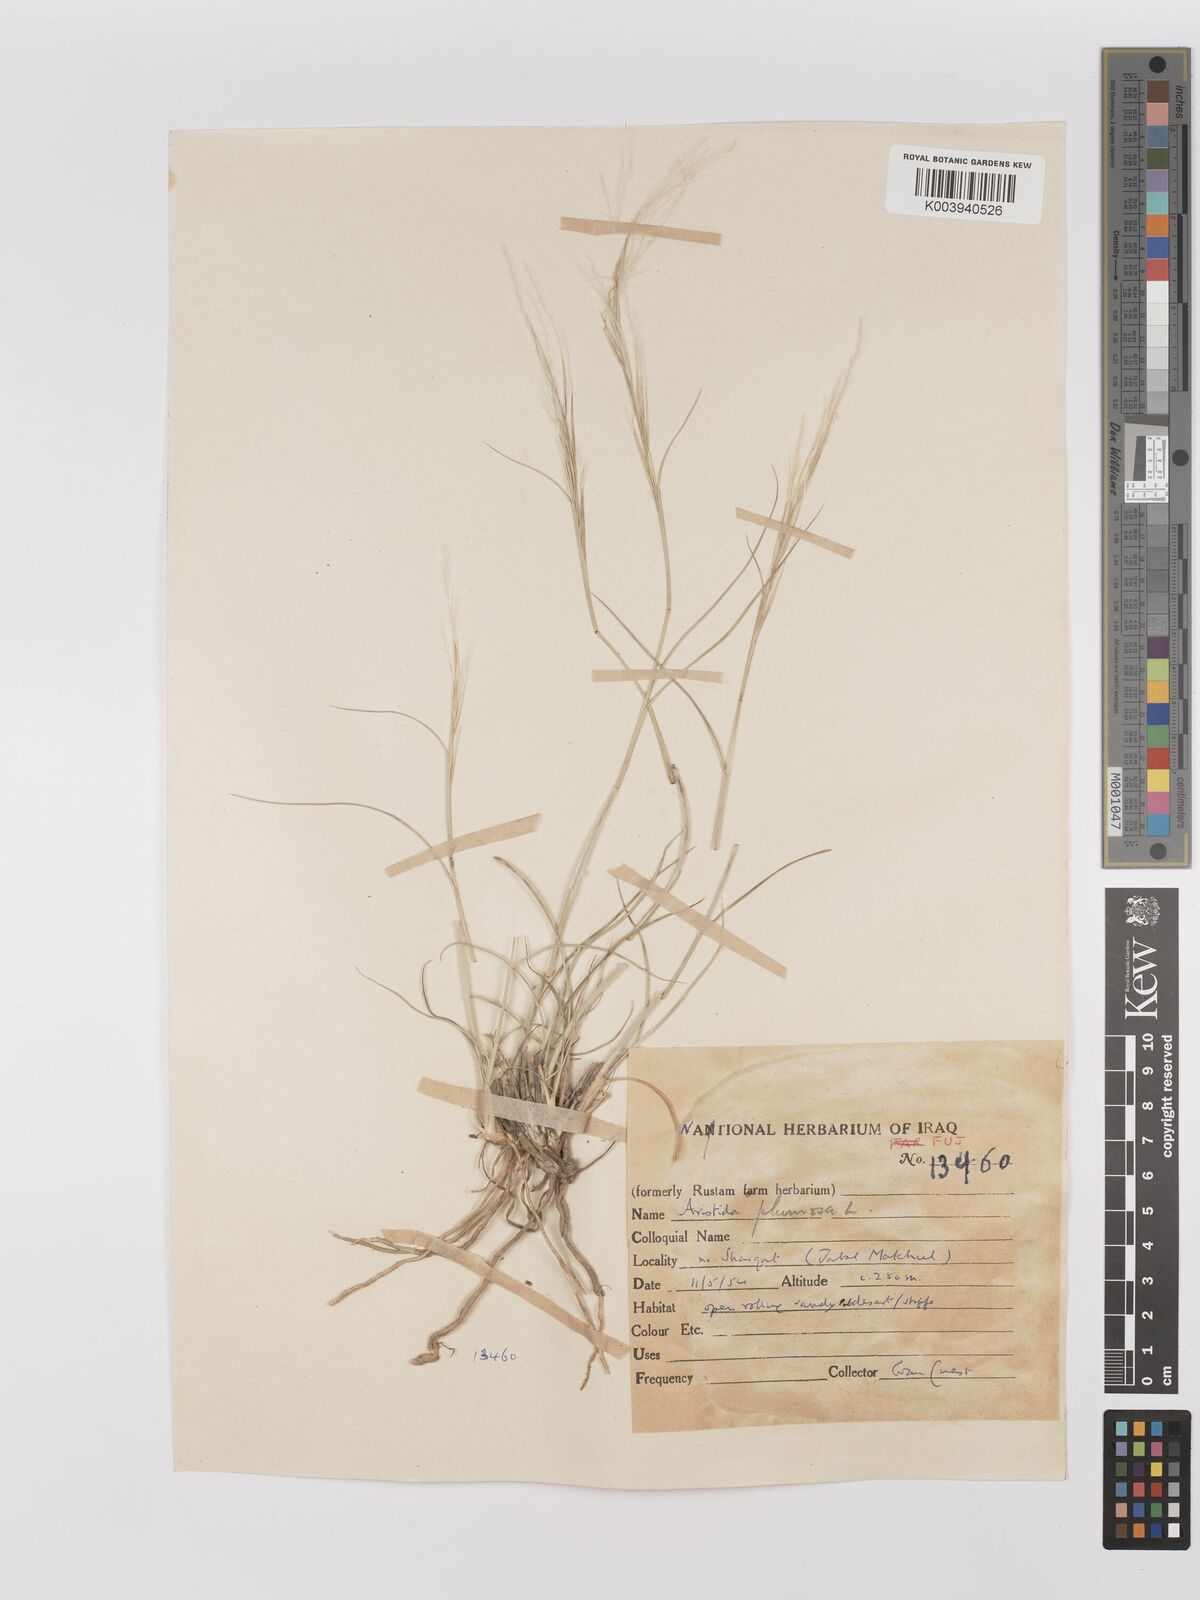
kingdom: Plantae
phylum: Tracheophyta
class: Liliopsida
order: Poales
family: Poaceae
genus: Stipagrostis
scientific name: Stipagrostis plumosa
